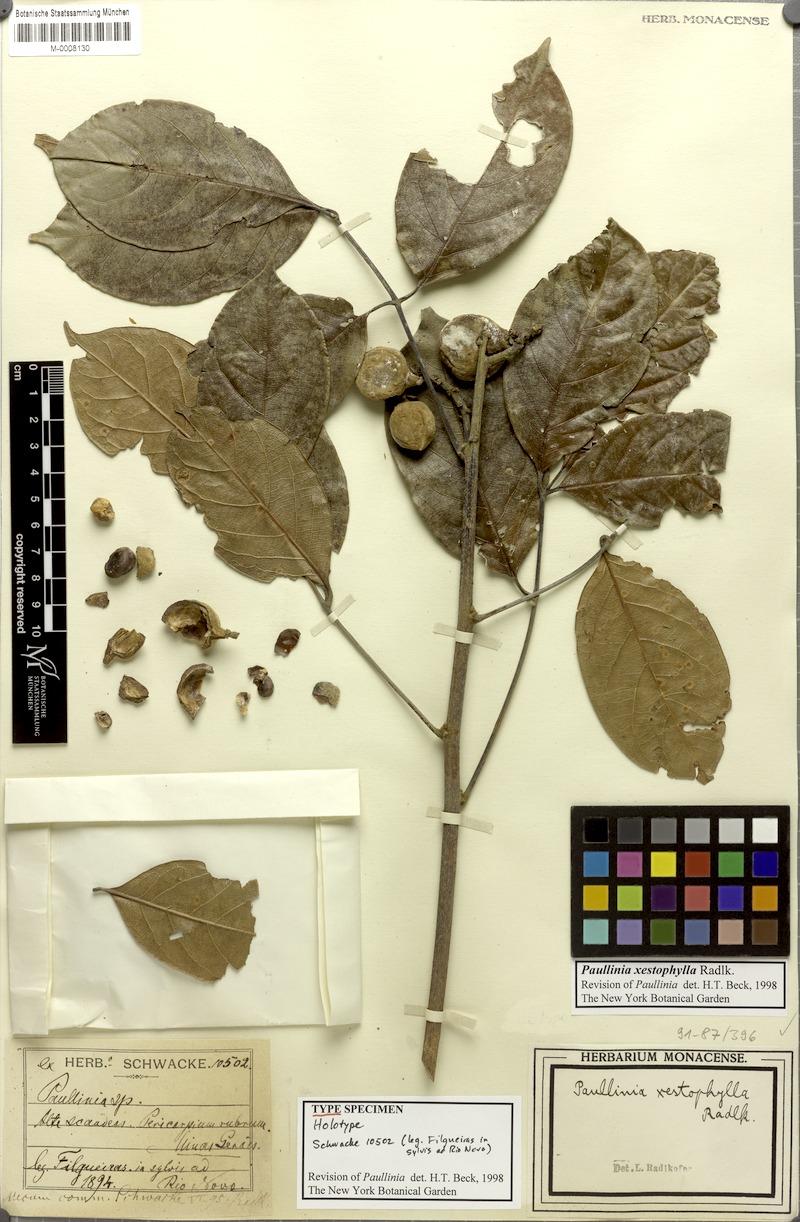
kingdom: Plantae
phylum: Tracheophyta
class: Magnoliopsida
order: Sapindales
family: Sapindaceae
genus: Paullinia
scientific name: Paullinia xestophylla
